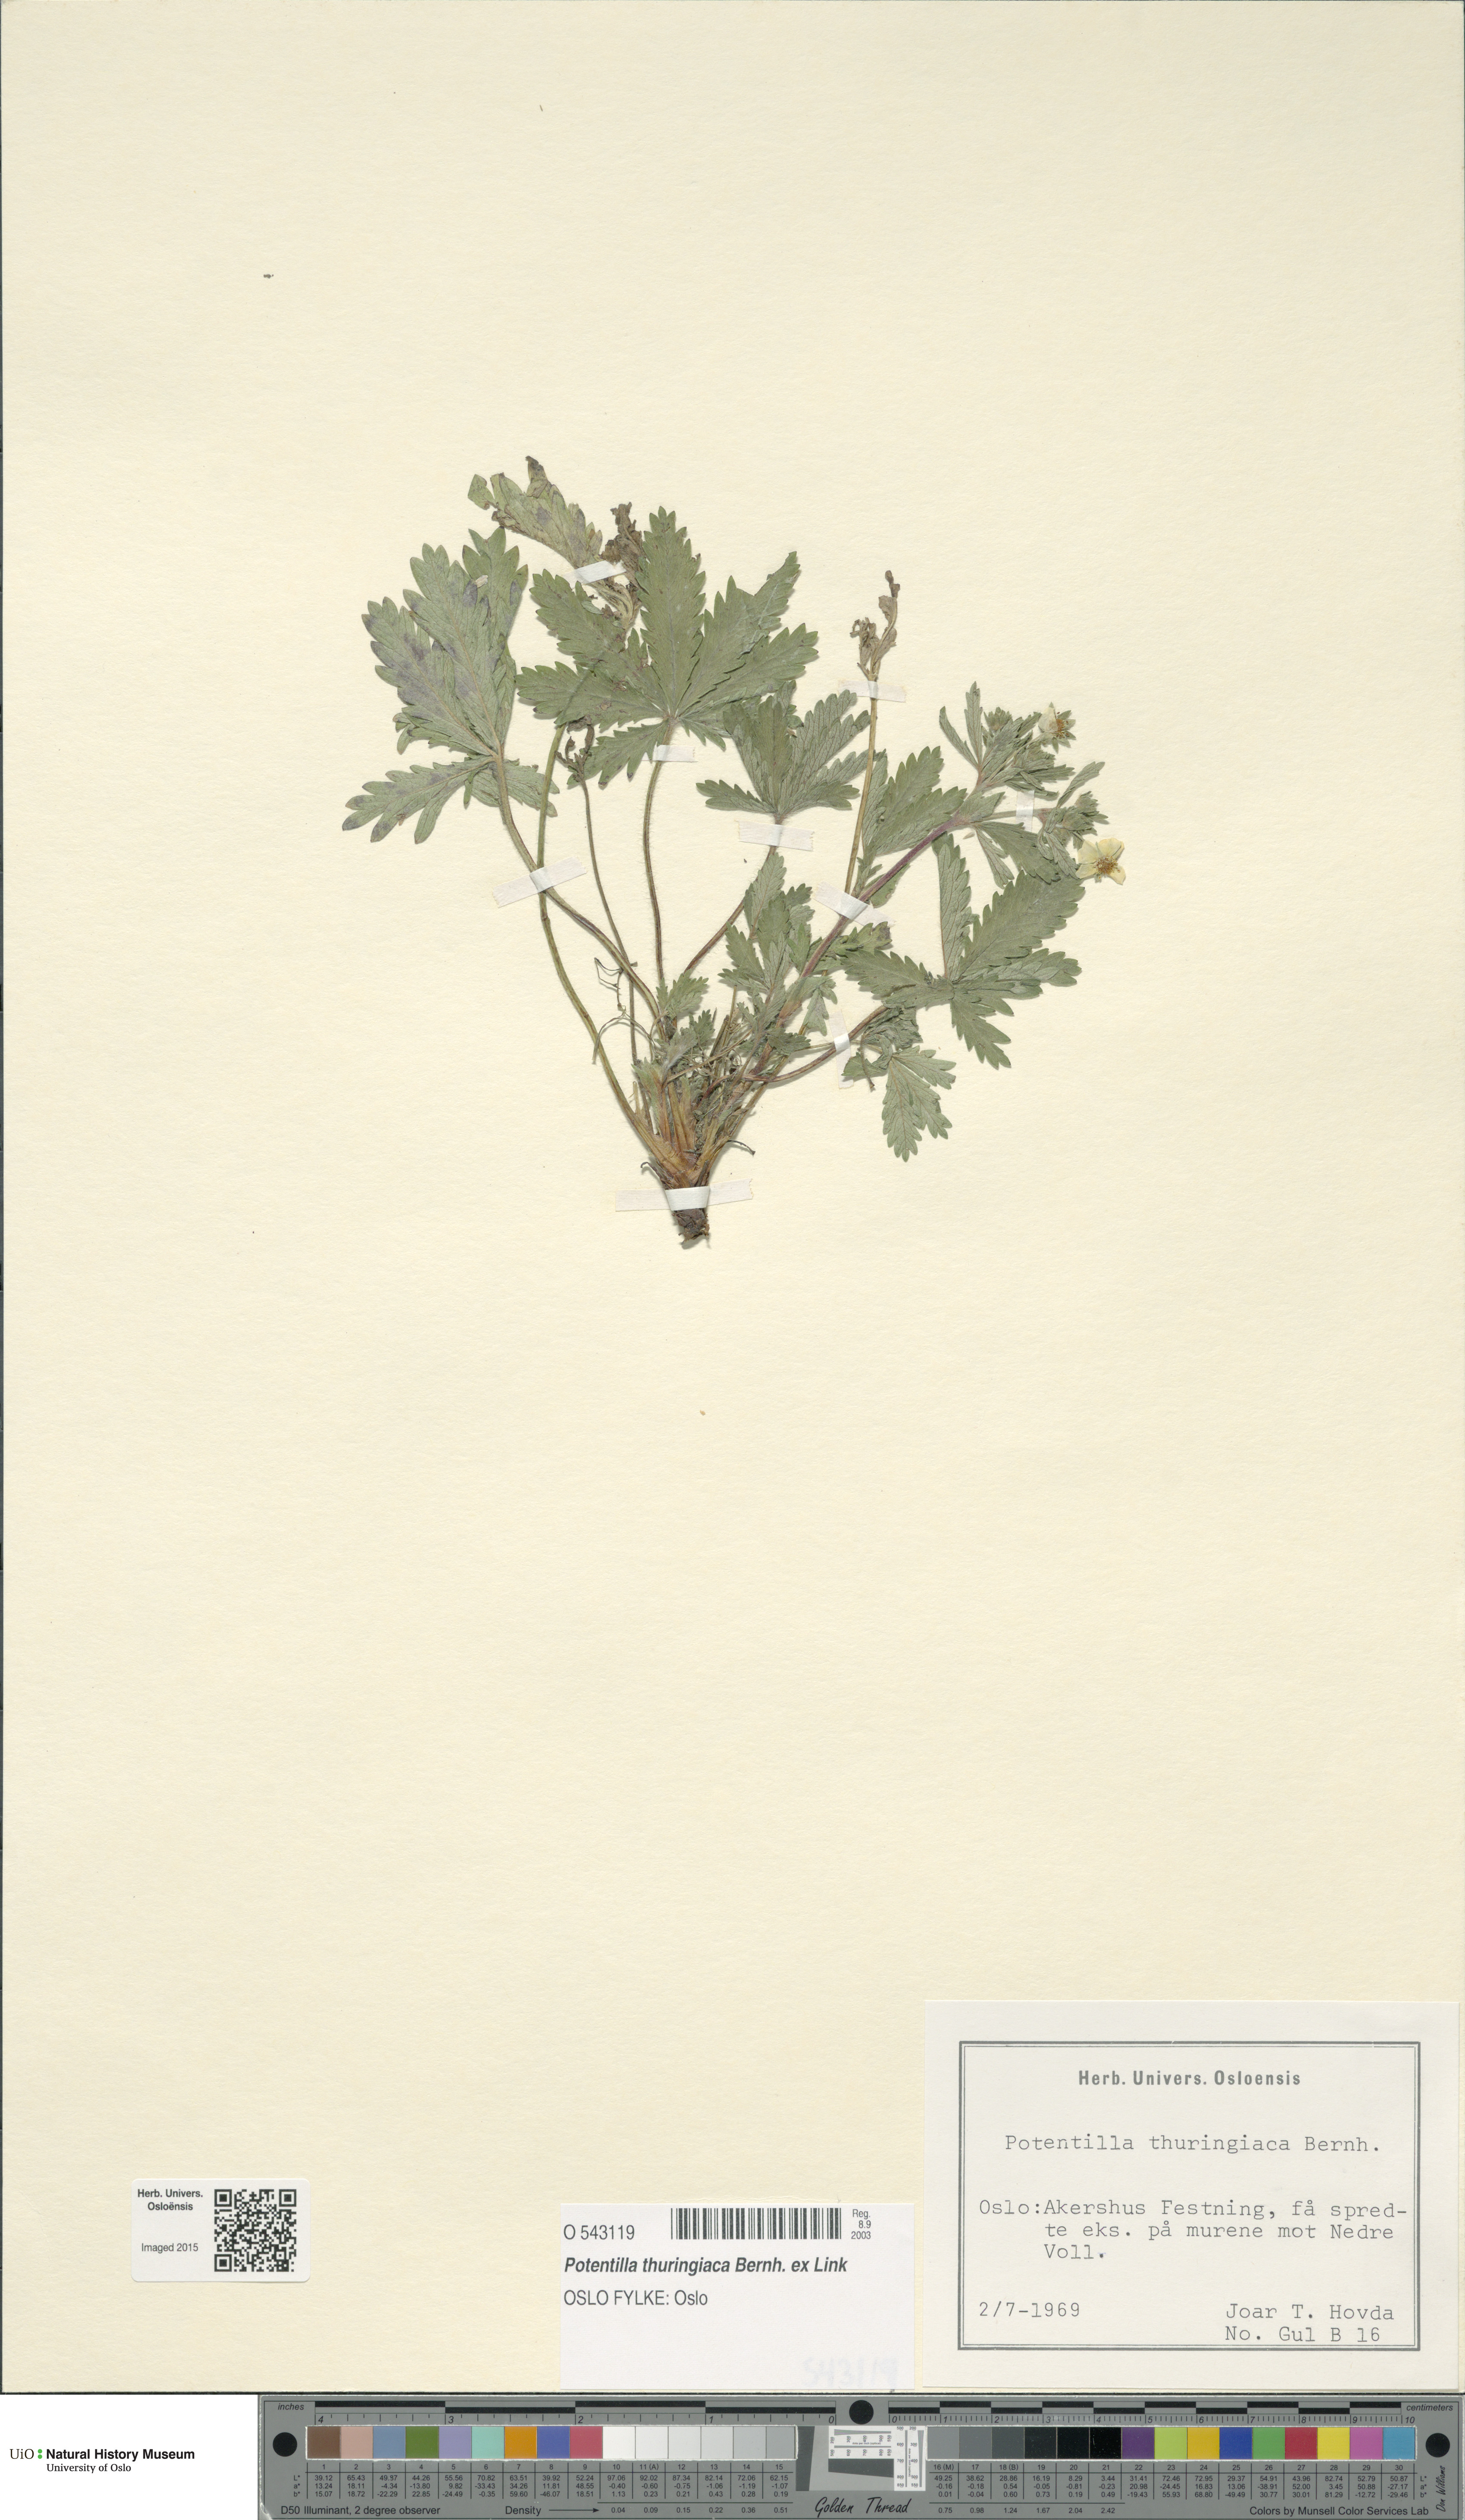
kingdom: Plantae
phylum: Tracheophyta
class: Magnoliopsida
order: Rosales
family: Rosaceae
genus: Potentilla
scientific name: Potentilla thuringiaca
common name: European cinquefoil
